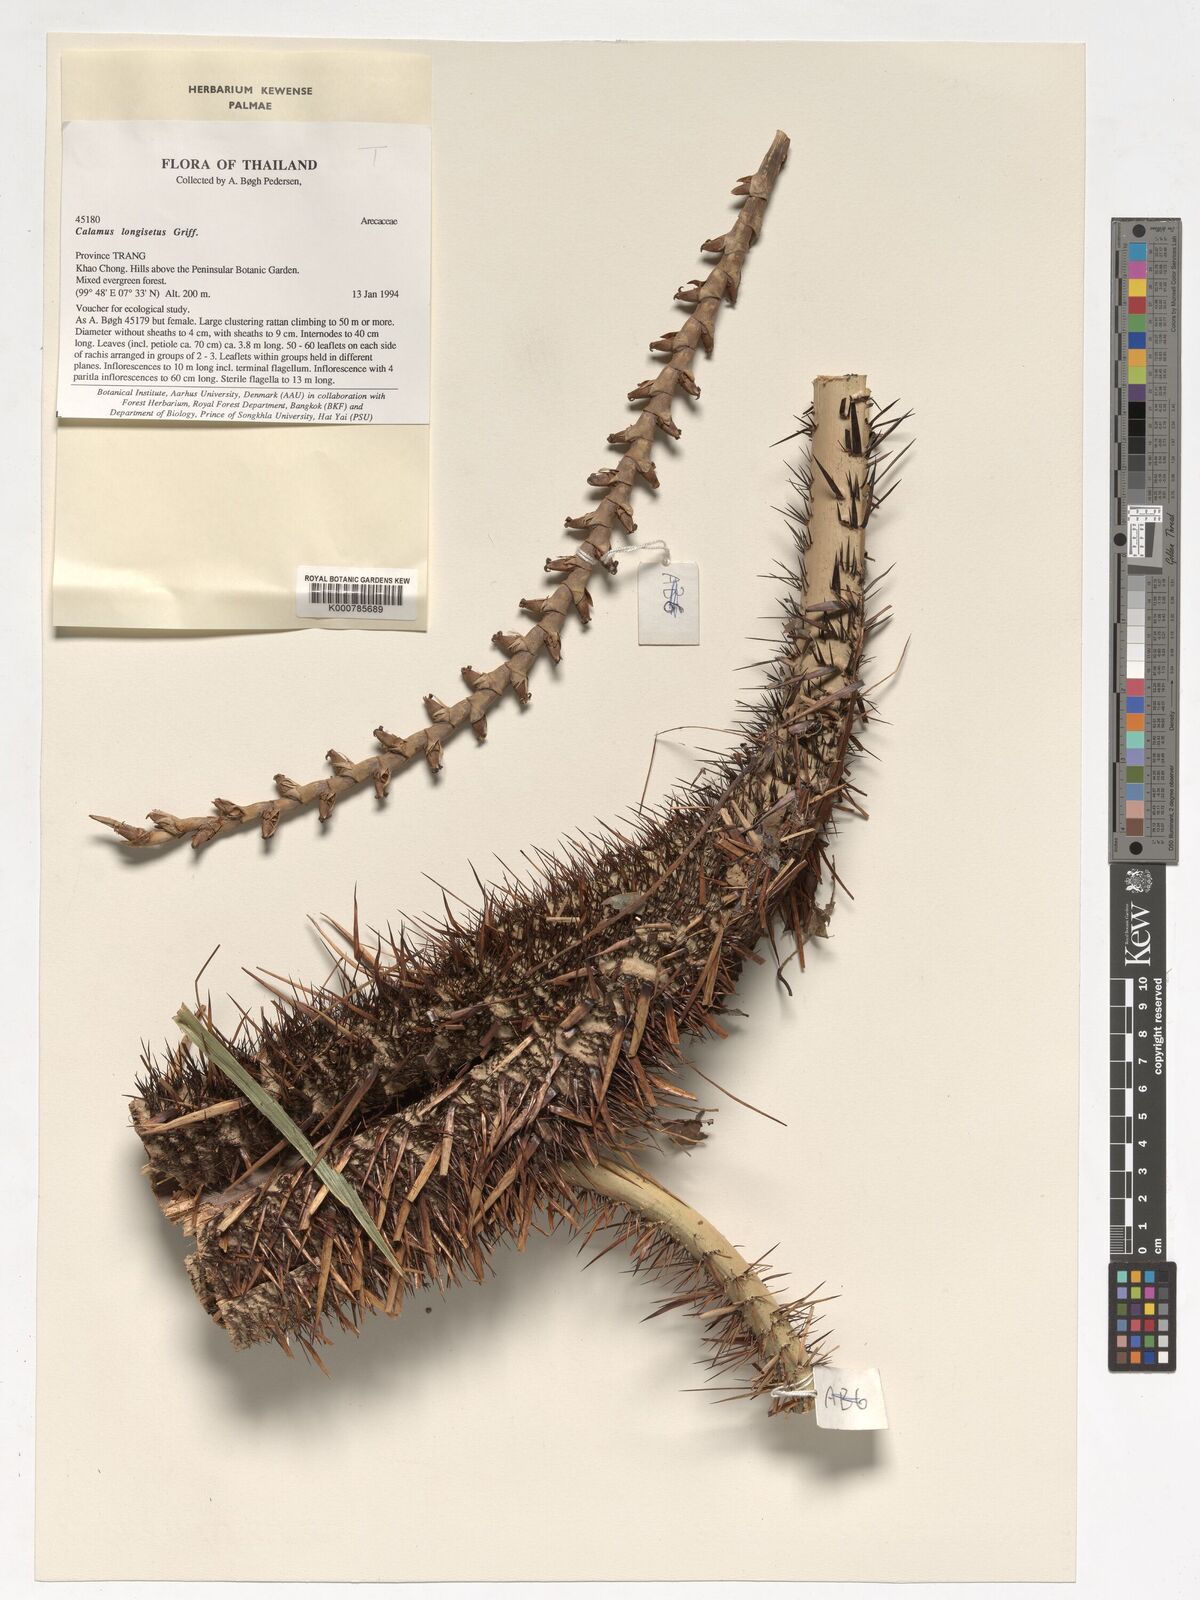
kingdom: Plantae
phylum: Tracheophyta
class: Liliopsida
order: Arecales
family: Arecaceae
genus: Calamus
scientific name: Calamus longisetus
